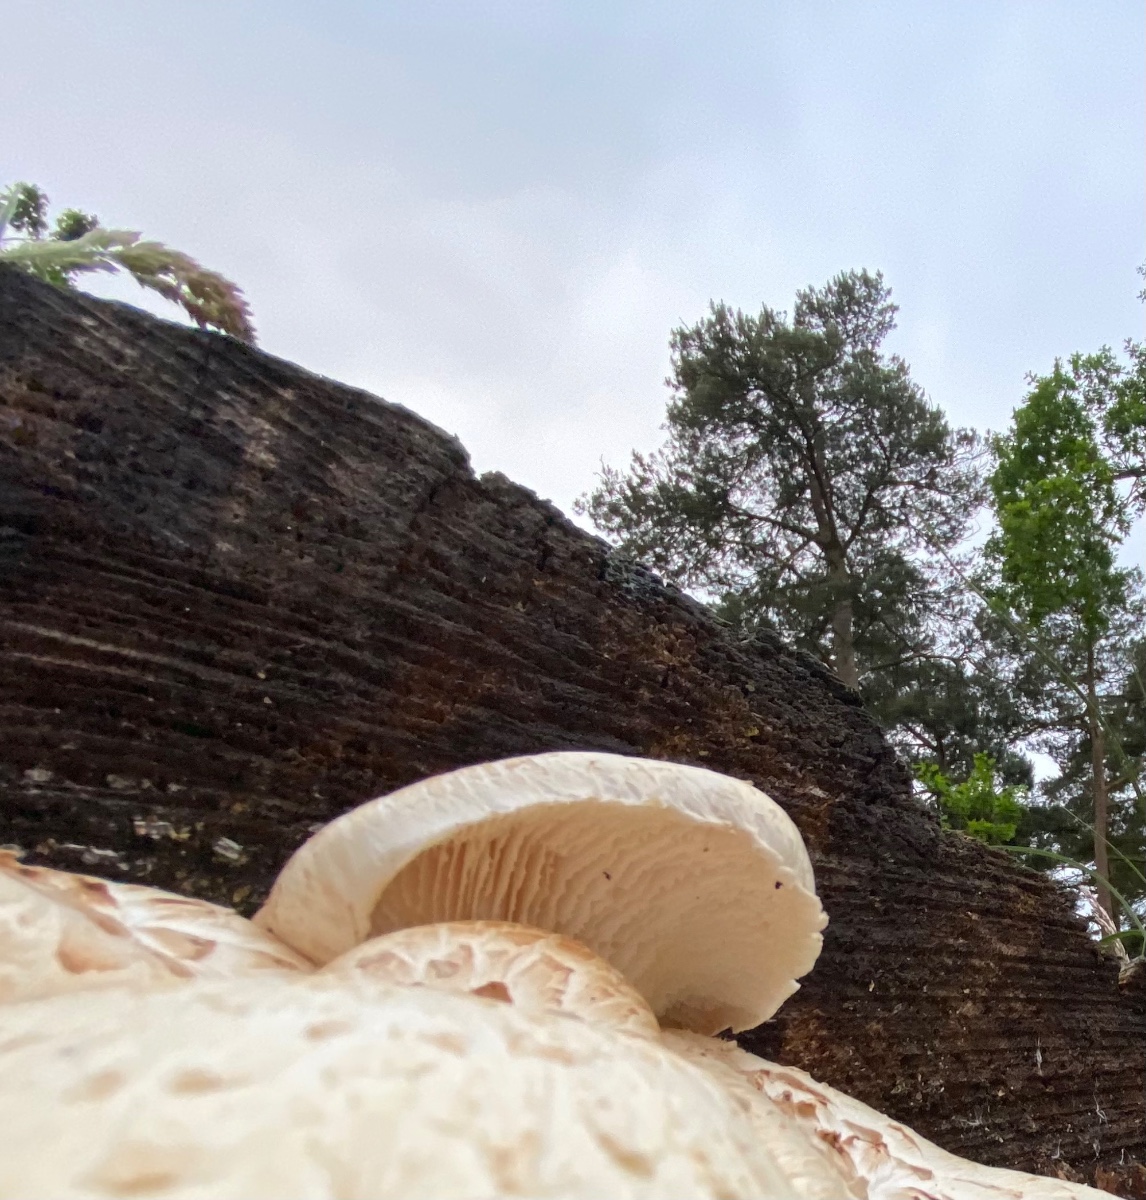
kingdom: Fungi
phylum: Basidiomycota
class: Agaricomycetes
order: Gloeophyllales
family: Gloeophyllaceae
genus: Neolentinus
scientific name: Neolentinus lepideus
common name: skællet sejhat
